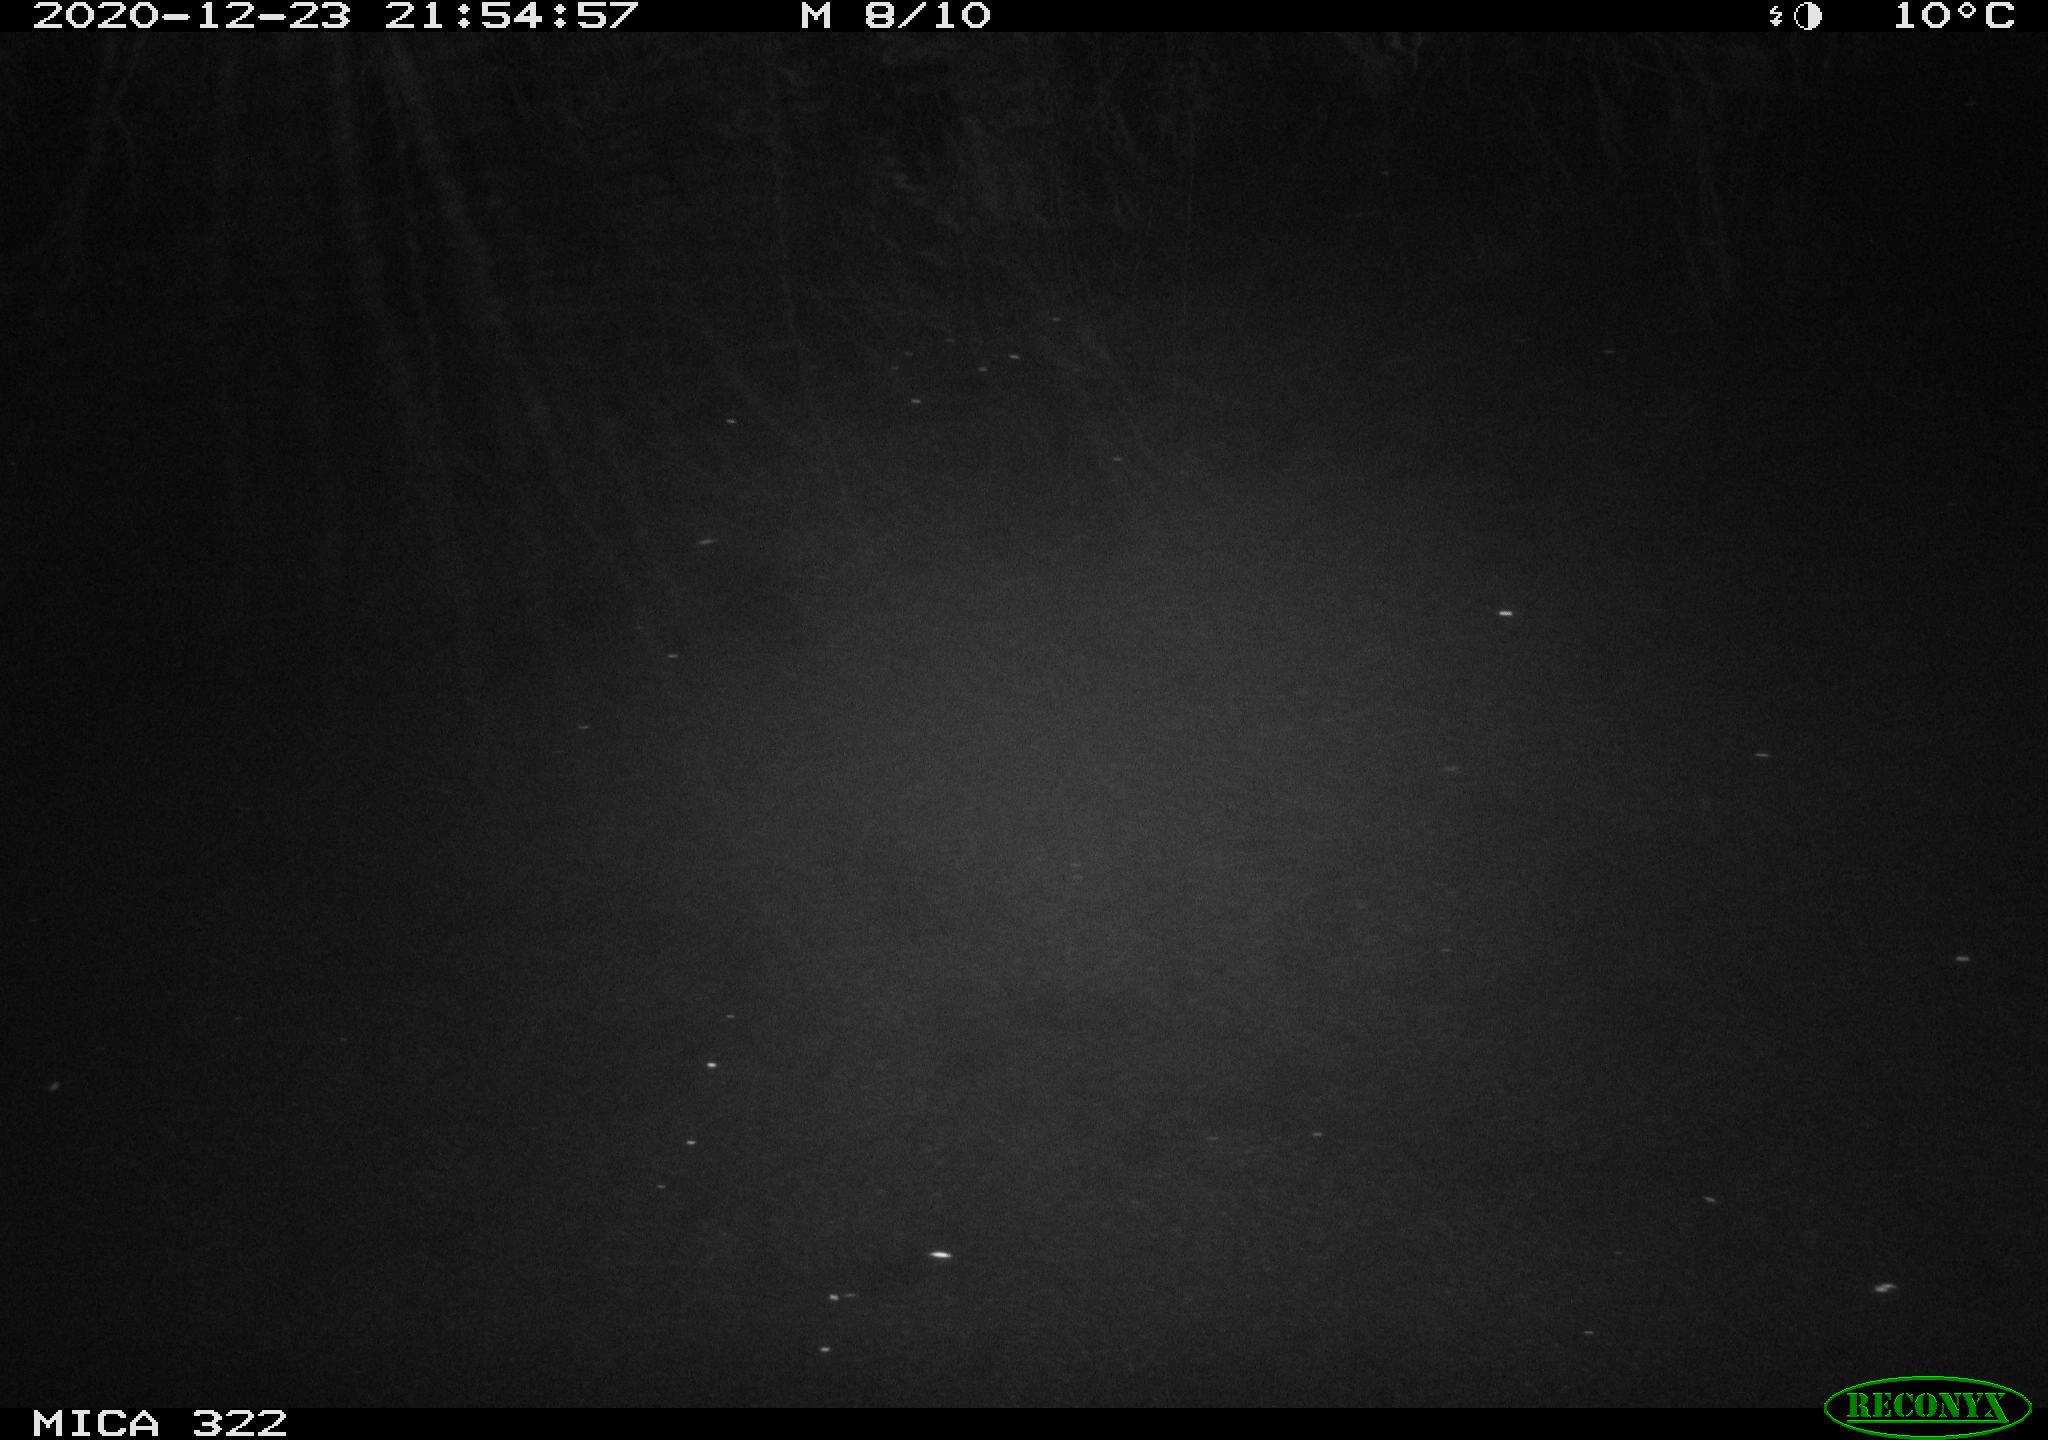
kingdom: Animalia
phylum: Chordata
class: Mammalia
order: Rodentia
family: Muridae
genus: Rattus
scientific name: Rattus norvegicus
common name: Brown rat
